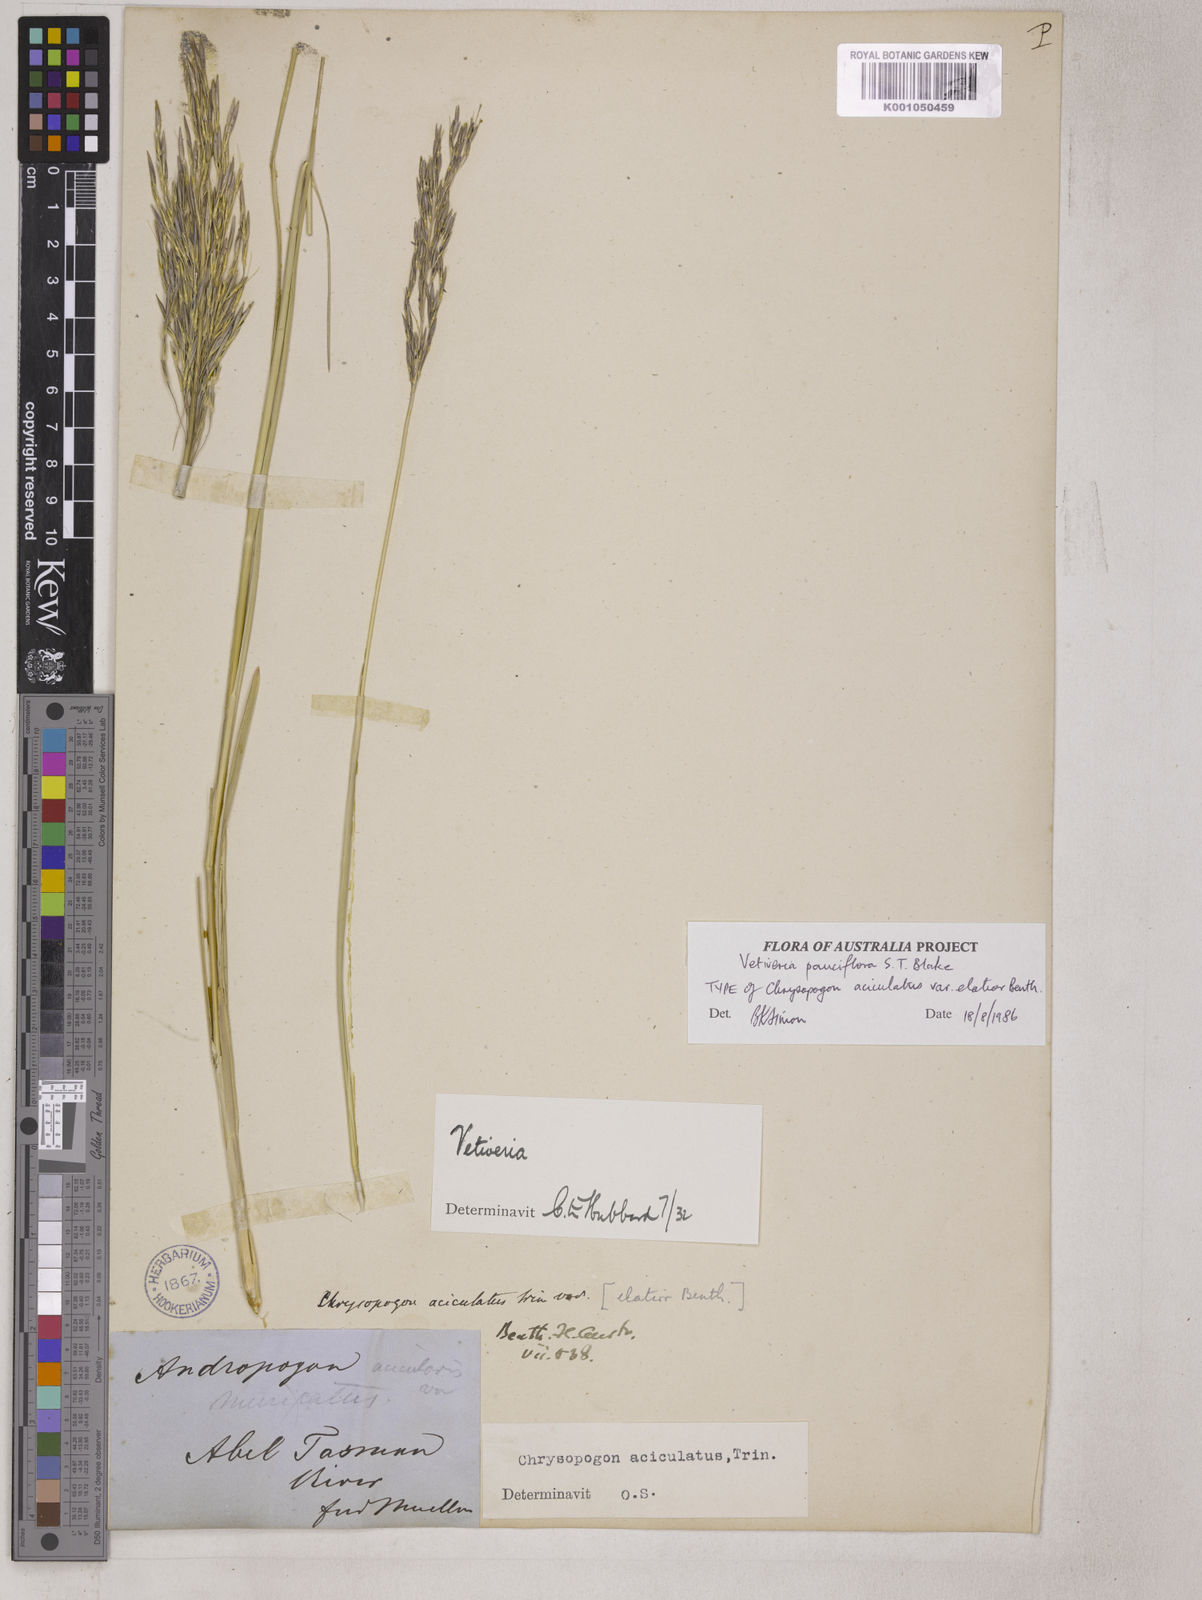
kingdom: Plantae
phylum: Tracheophyta
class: Liliopsida
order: Poales
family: Poaceae
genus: Vetiveria
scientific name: Vetiveria
